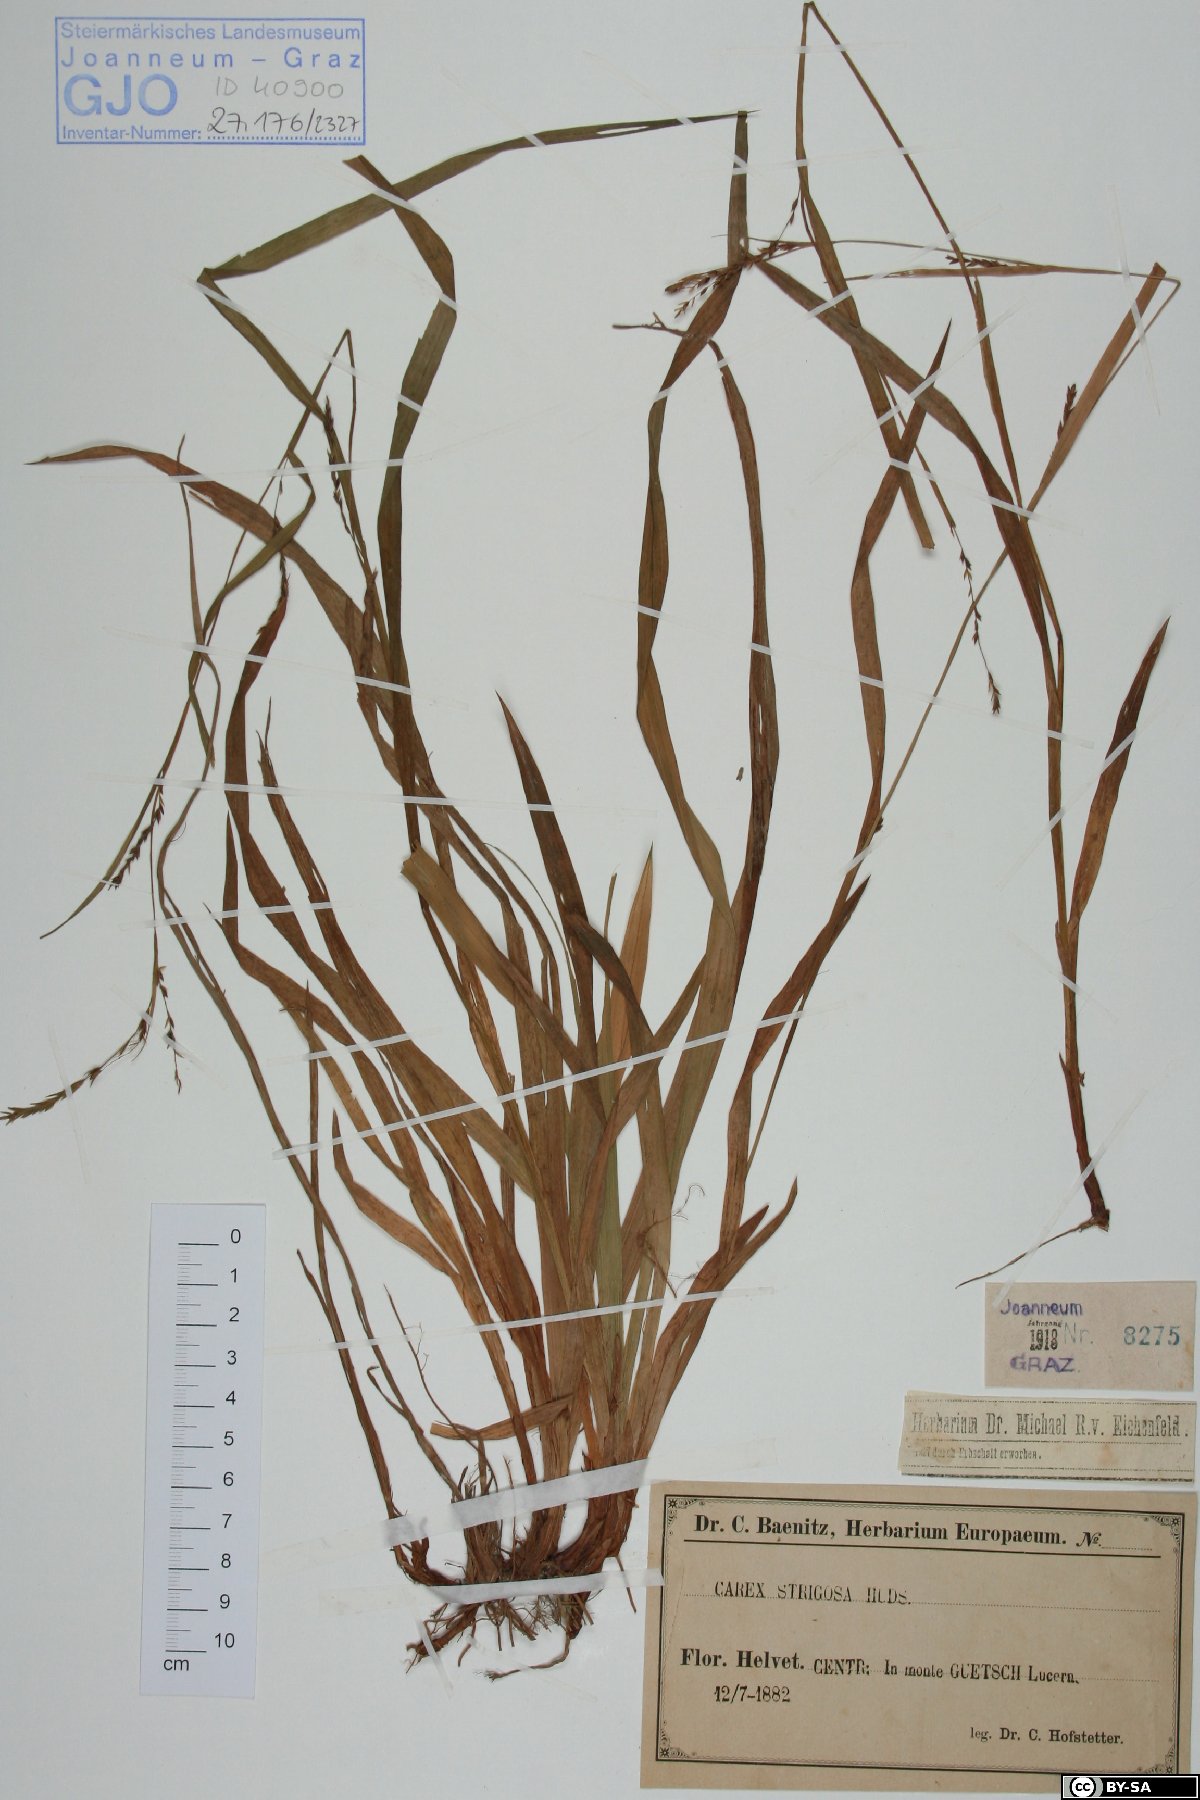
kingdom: Plantae
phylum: Tracheophyta
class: Liliopsida
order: Poales
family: Cyperaceae
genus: Carex
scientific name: Carex strigosa
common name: Thin-spiked wood-sedge
